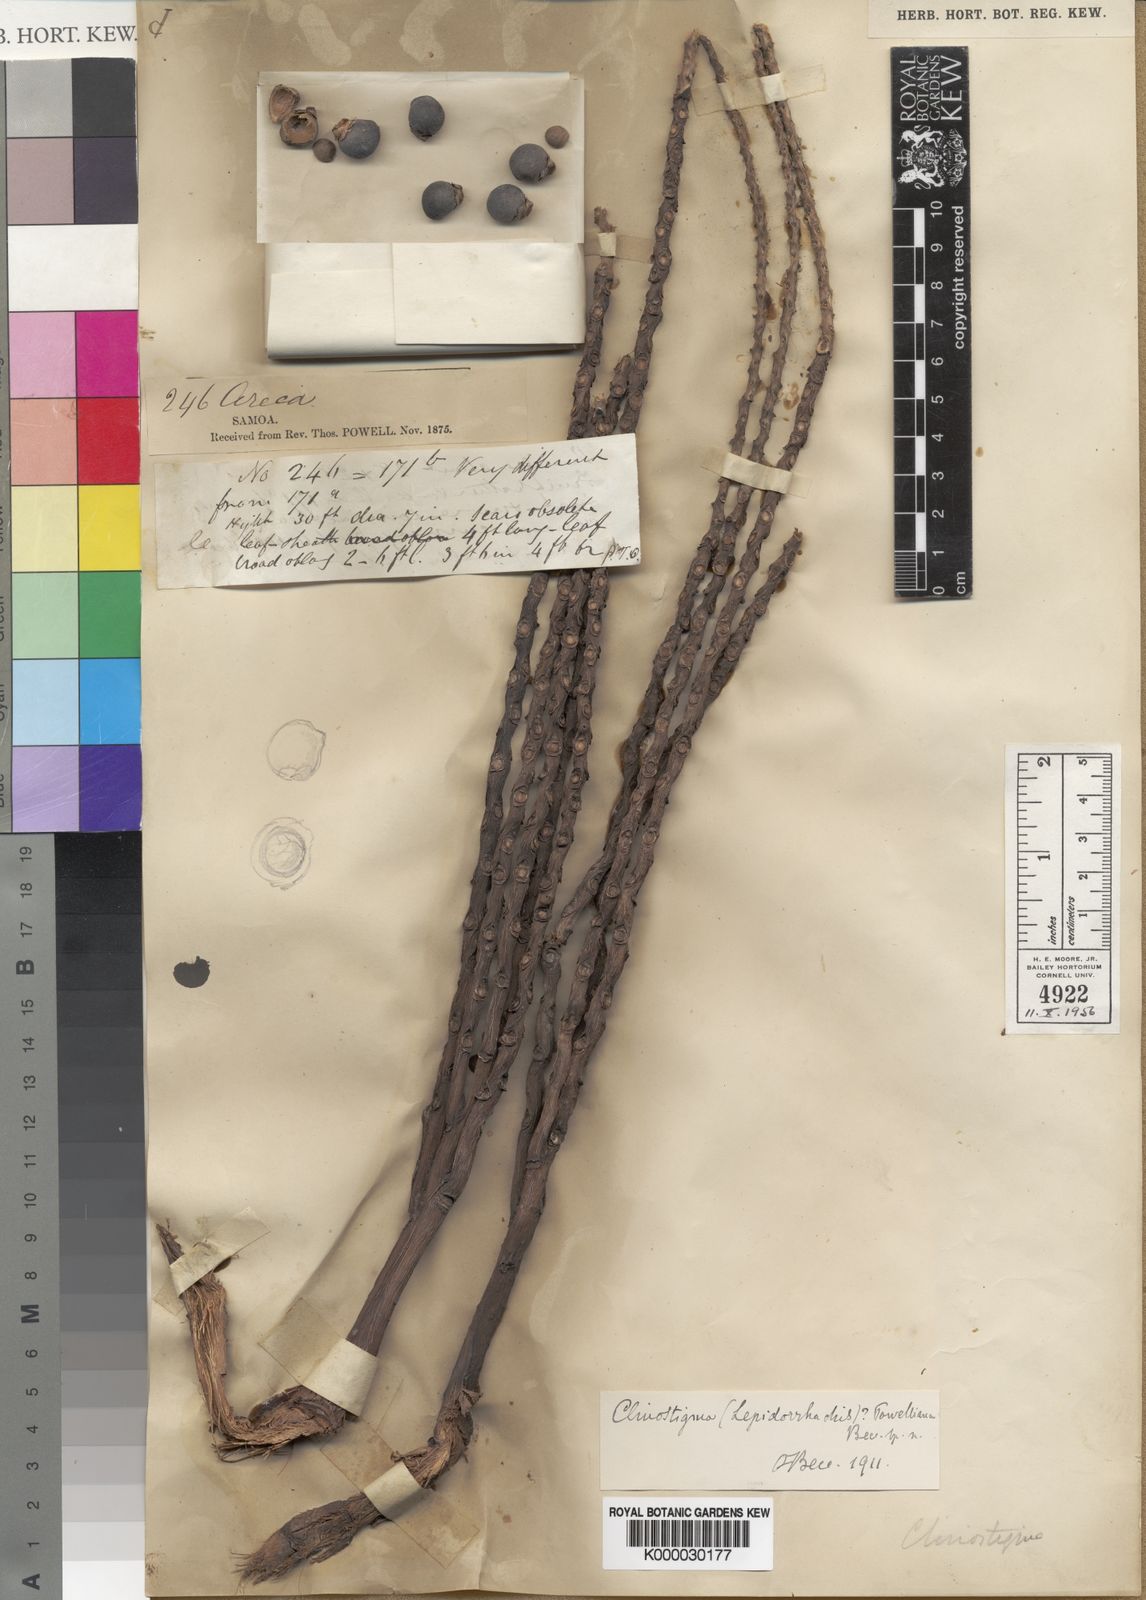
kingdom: Plantae
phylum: Tracheophyta
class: Liliopsida
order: Arecales
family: Arecaceae
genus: Clinostigma
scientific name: Clinostigma samoense
